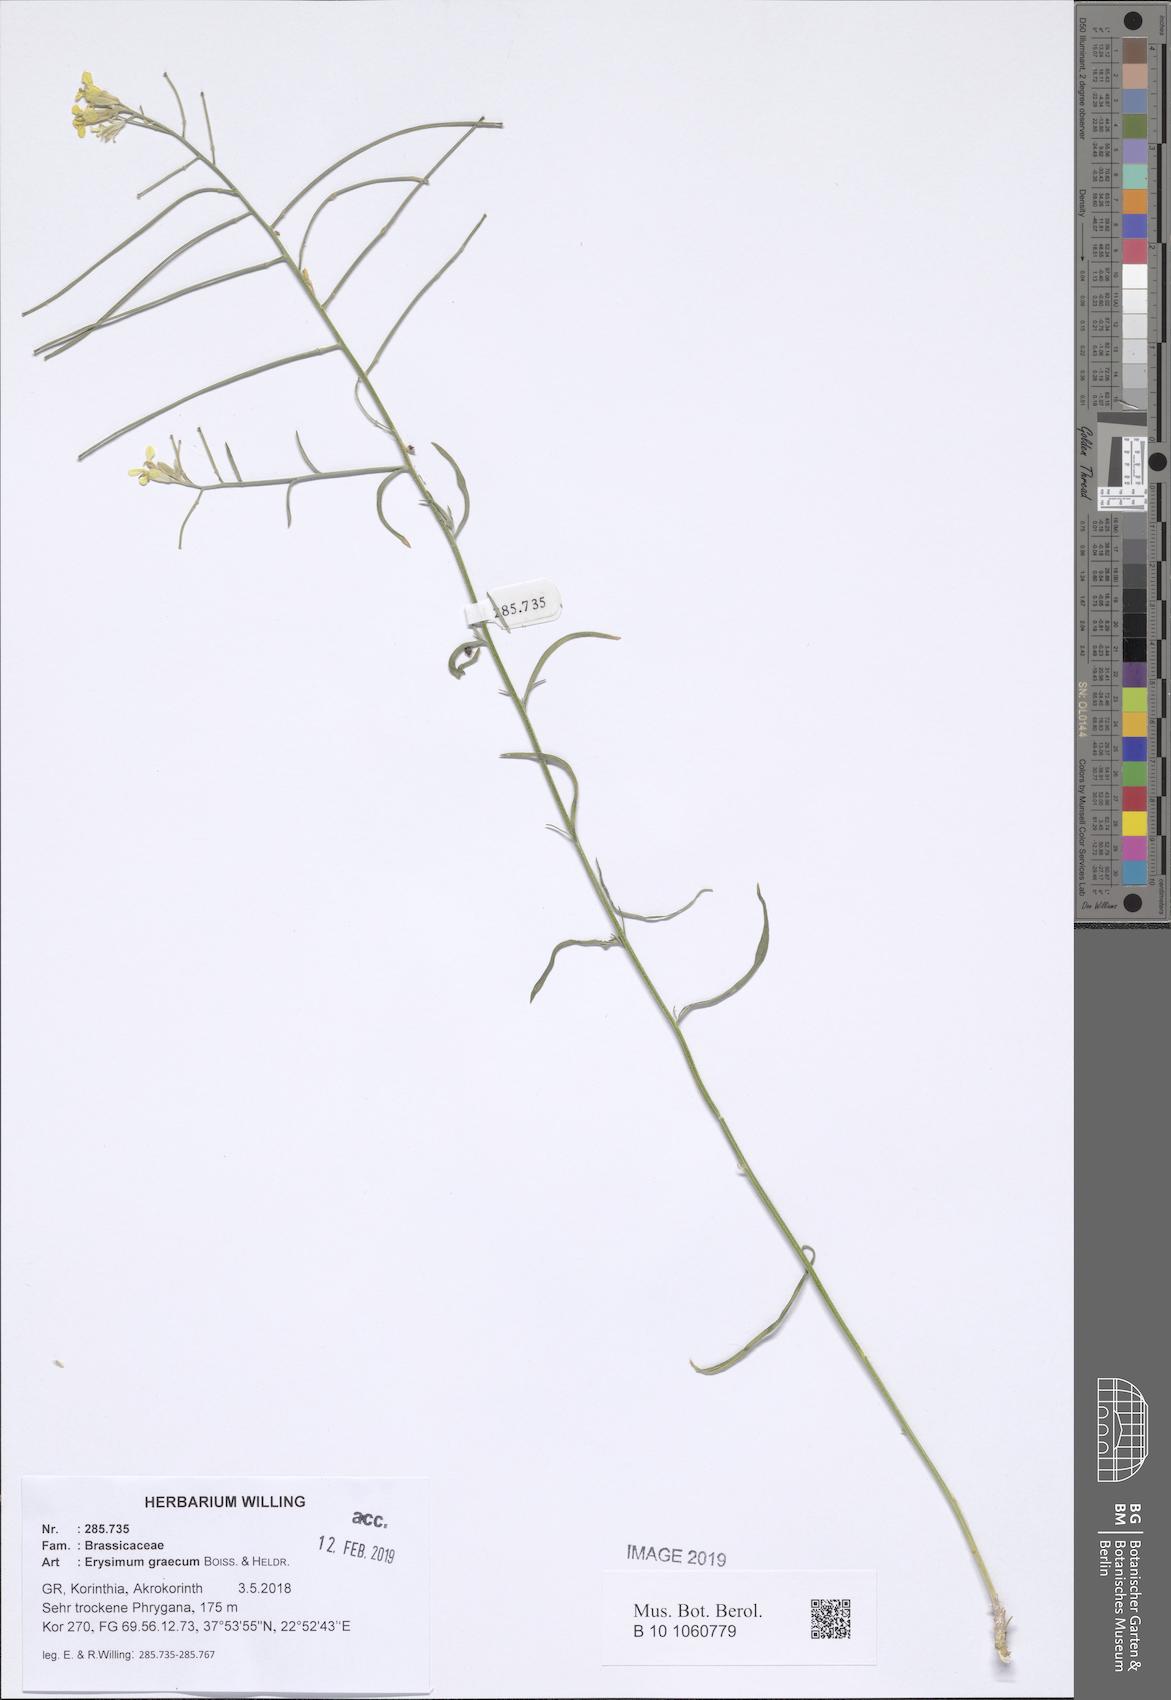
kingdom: Plantae
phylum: Tracheophyta
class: Magnoliopsida
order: Brassicales
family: Brassicaceae
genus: Erysimum
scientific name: Erysimum graecum
